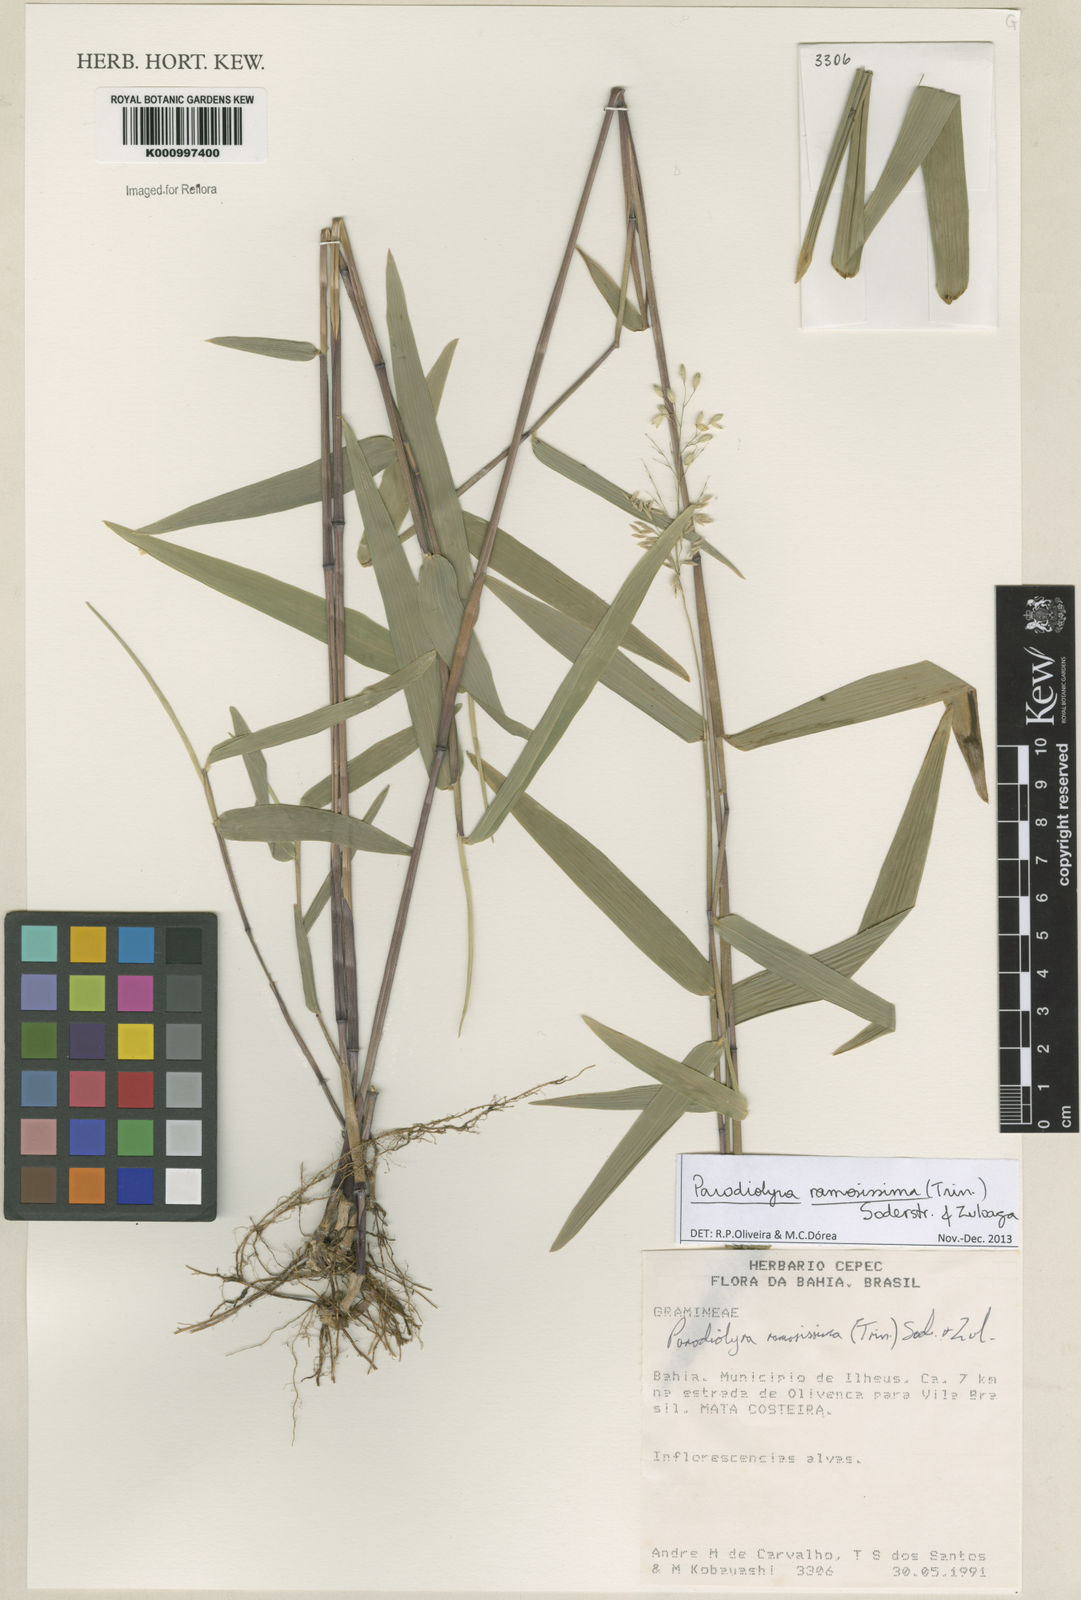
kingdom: Plantae
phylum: Tracheophyta
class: Liliopsida
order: Poales
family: Poaceae
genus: Parodiolyra
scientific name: Parodiolyra ramosissima
